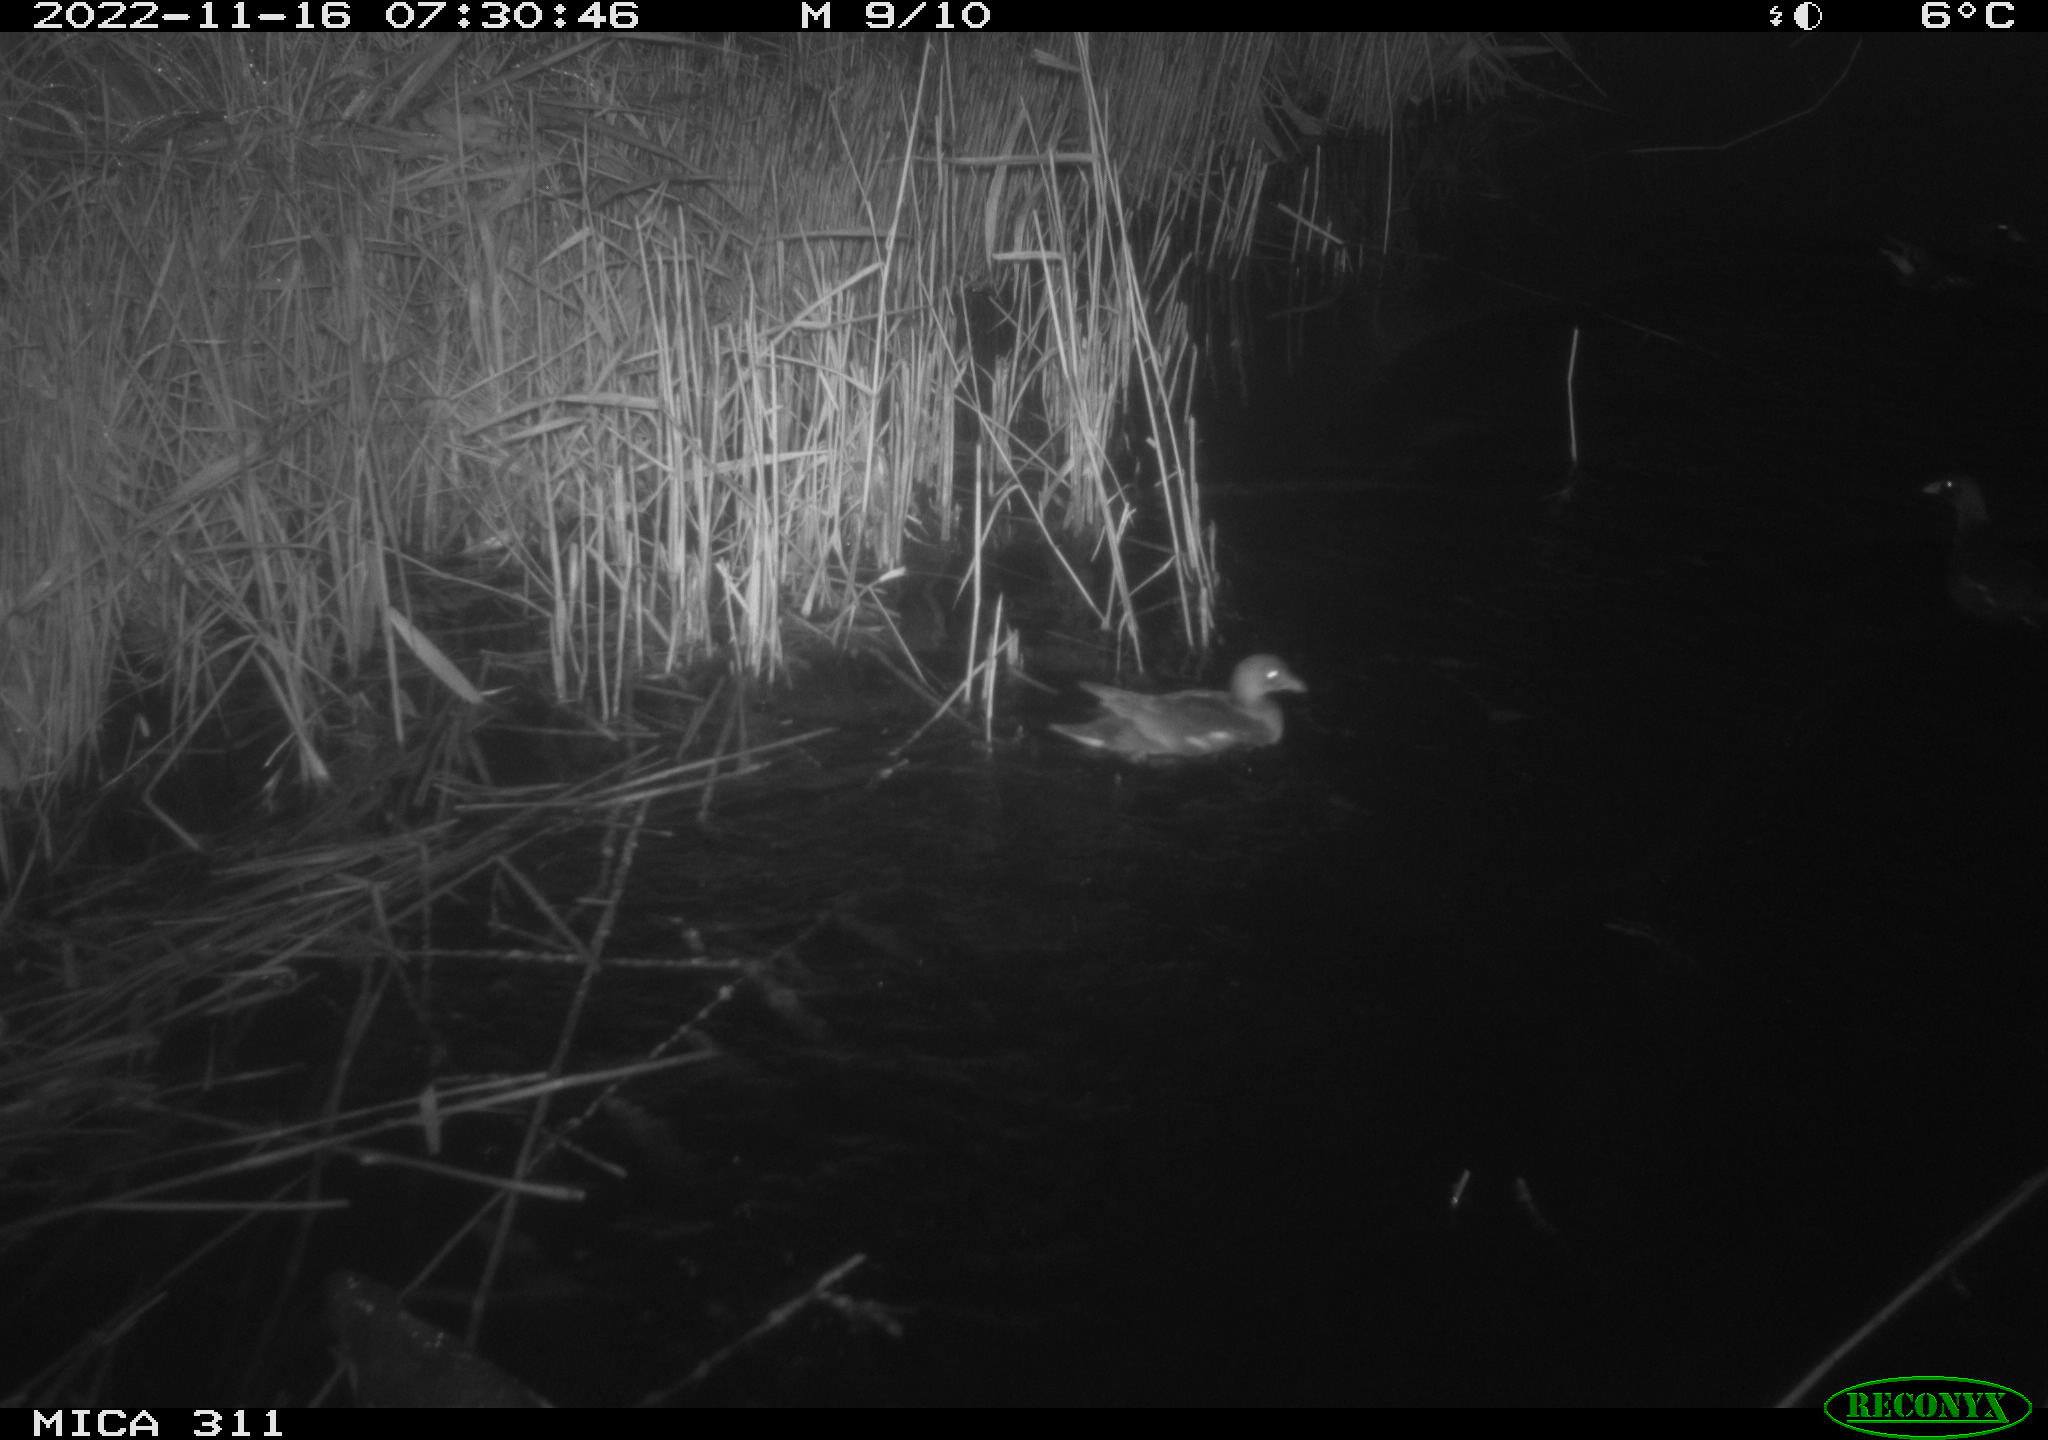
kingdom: Animalia
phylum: Chordata
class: Aves
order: Gruiformes
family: Rallidae
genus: Gallinula
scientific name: Gallinula chloropus
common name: Common moorhen
